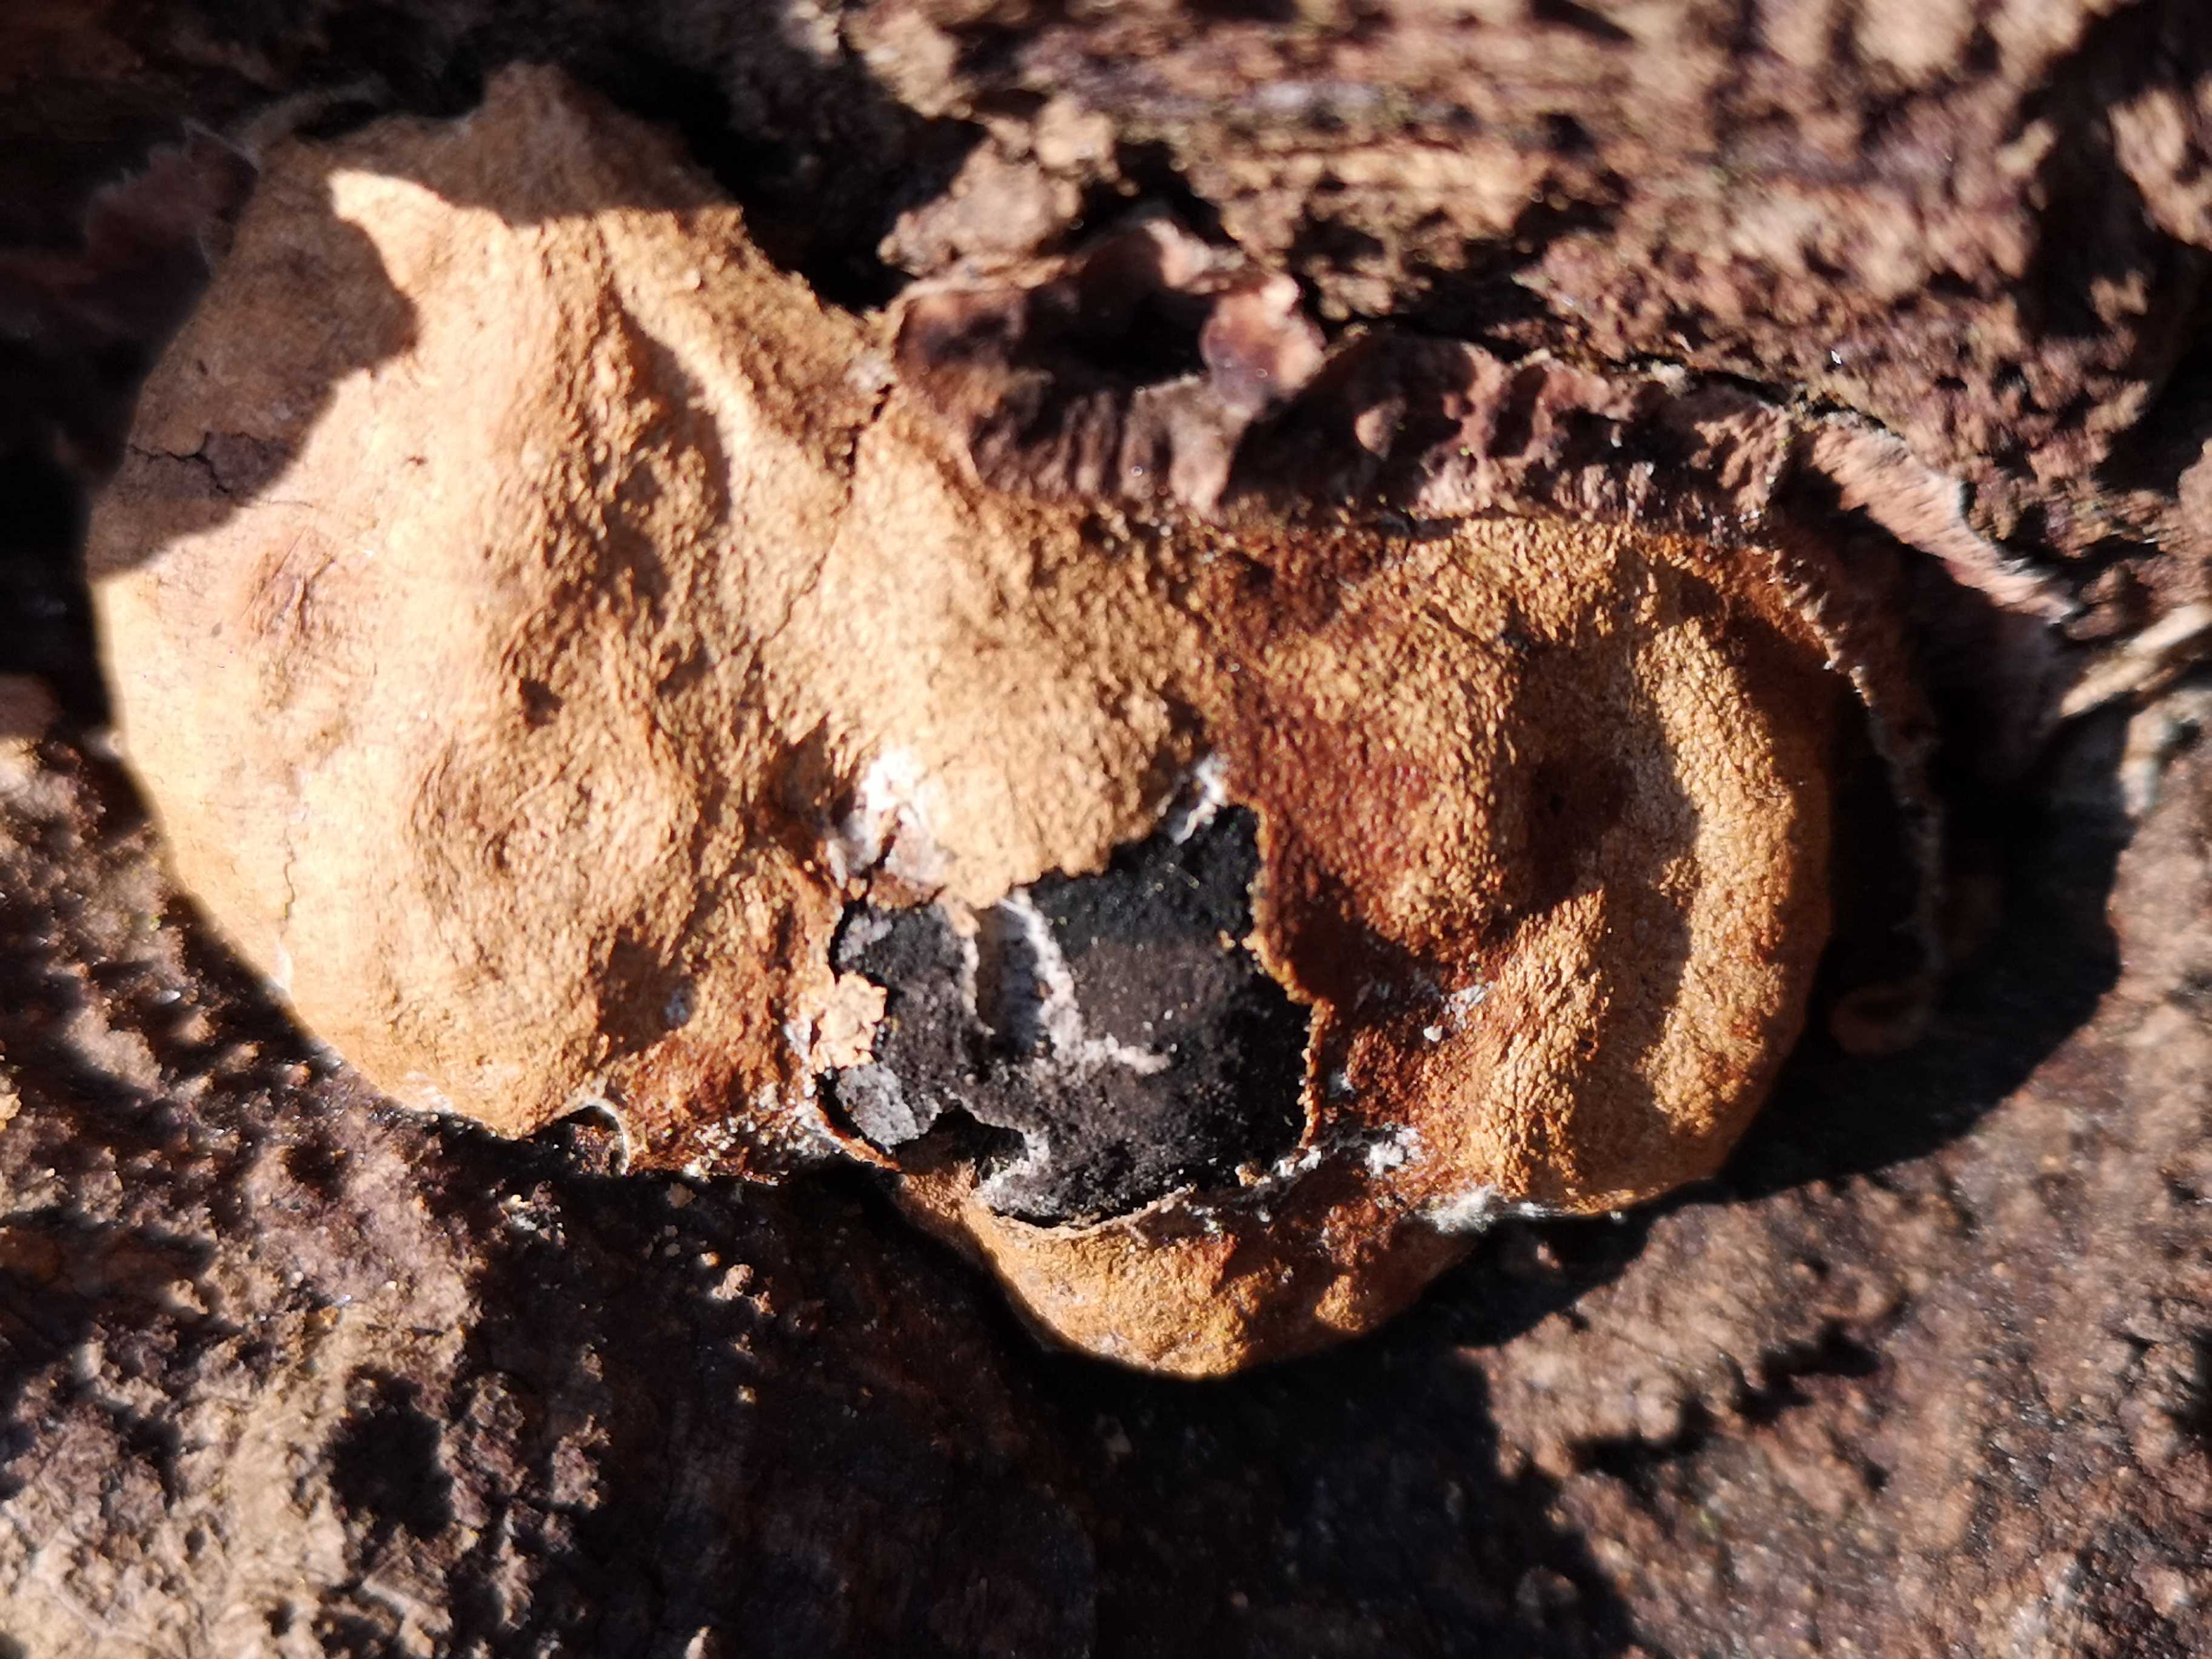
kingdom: Protozoa
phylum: Mycetozoa
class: Myxomycetes
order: Physarales
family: Physaraceae
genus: Fuligo
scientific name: Fuligo luteonitens
